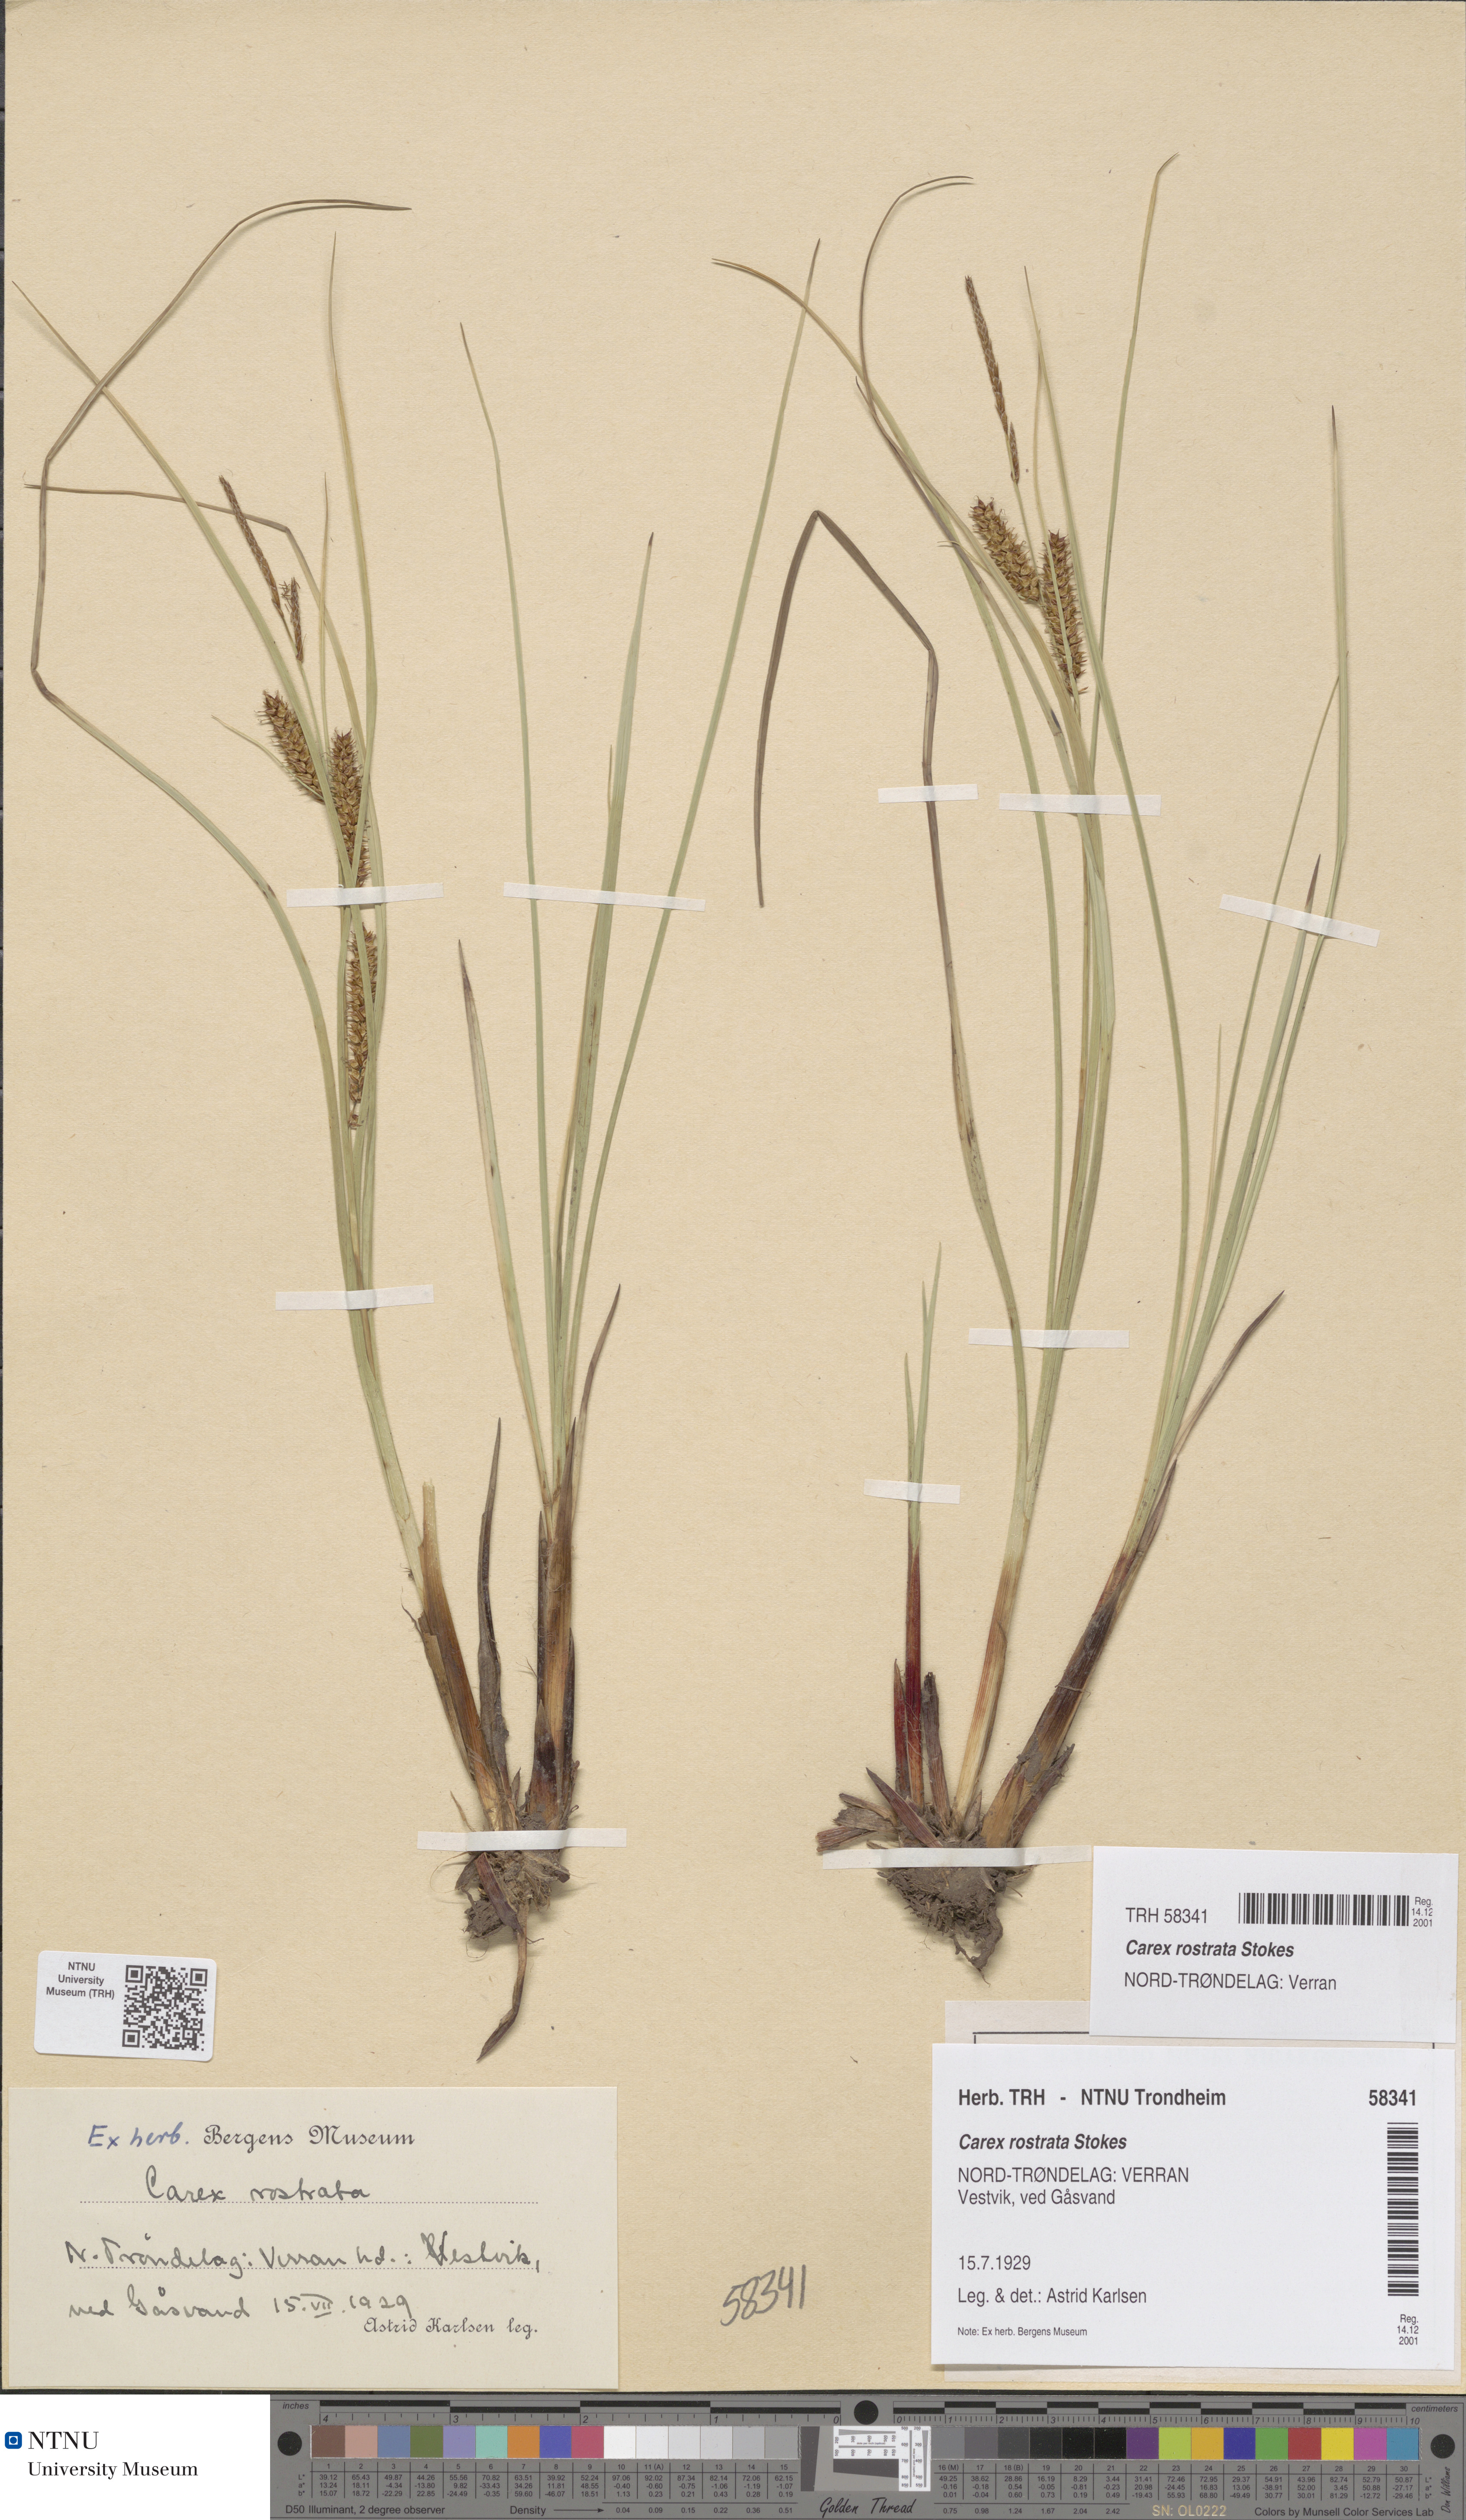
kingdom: Plantae
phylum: Tracheophyta
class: Liliopsida
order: Poales
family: Cyperaceae
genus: Carex
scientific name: Carex rostrata
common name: Bottle sedge
